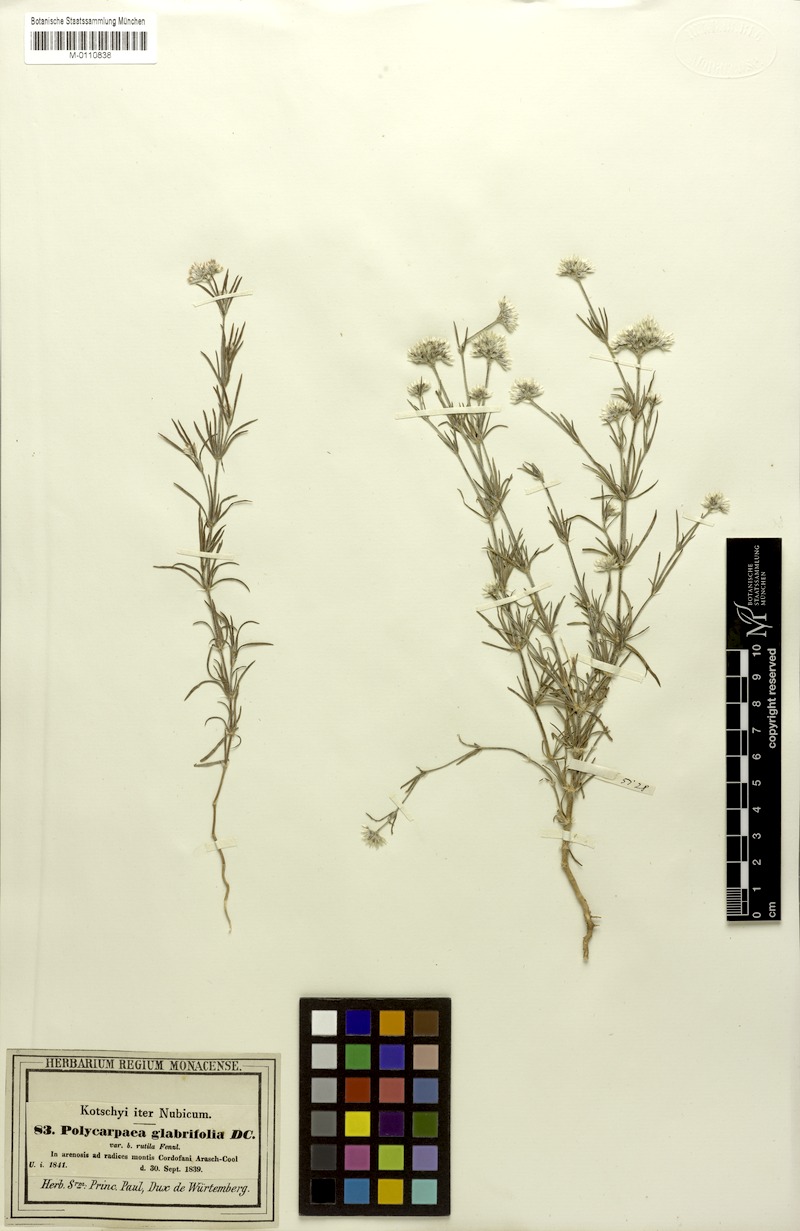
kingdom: Plantae
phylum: Tracheophyta
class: Magnoliopsida
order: Caryophyllales
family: Caryophyllaceae
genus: Polycarpaea
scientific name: Polycarpaea corymbosa
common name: Oldman's cap
